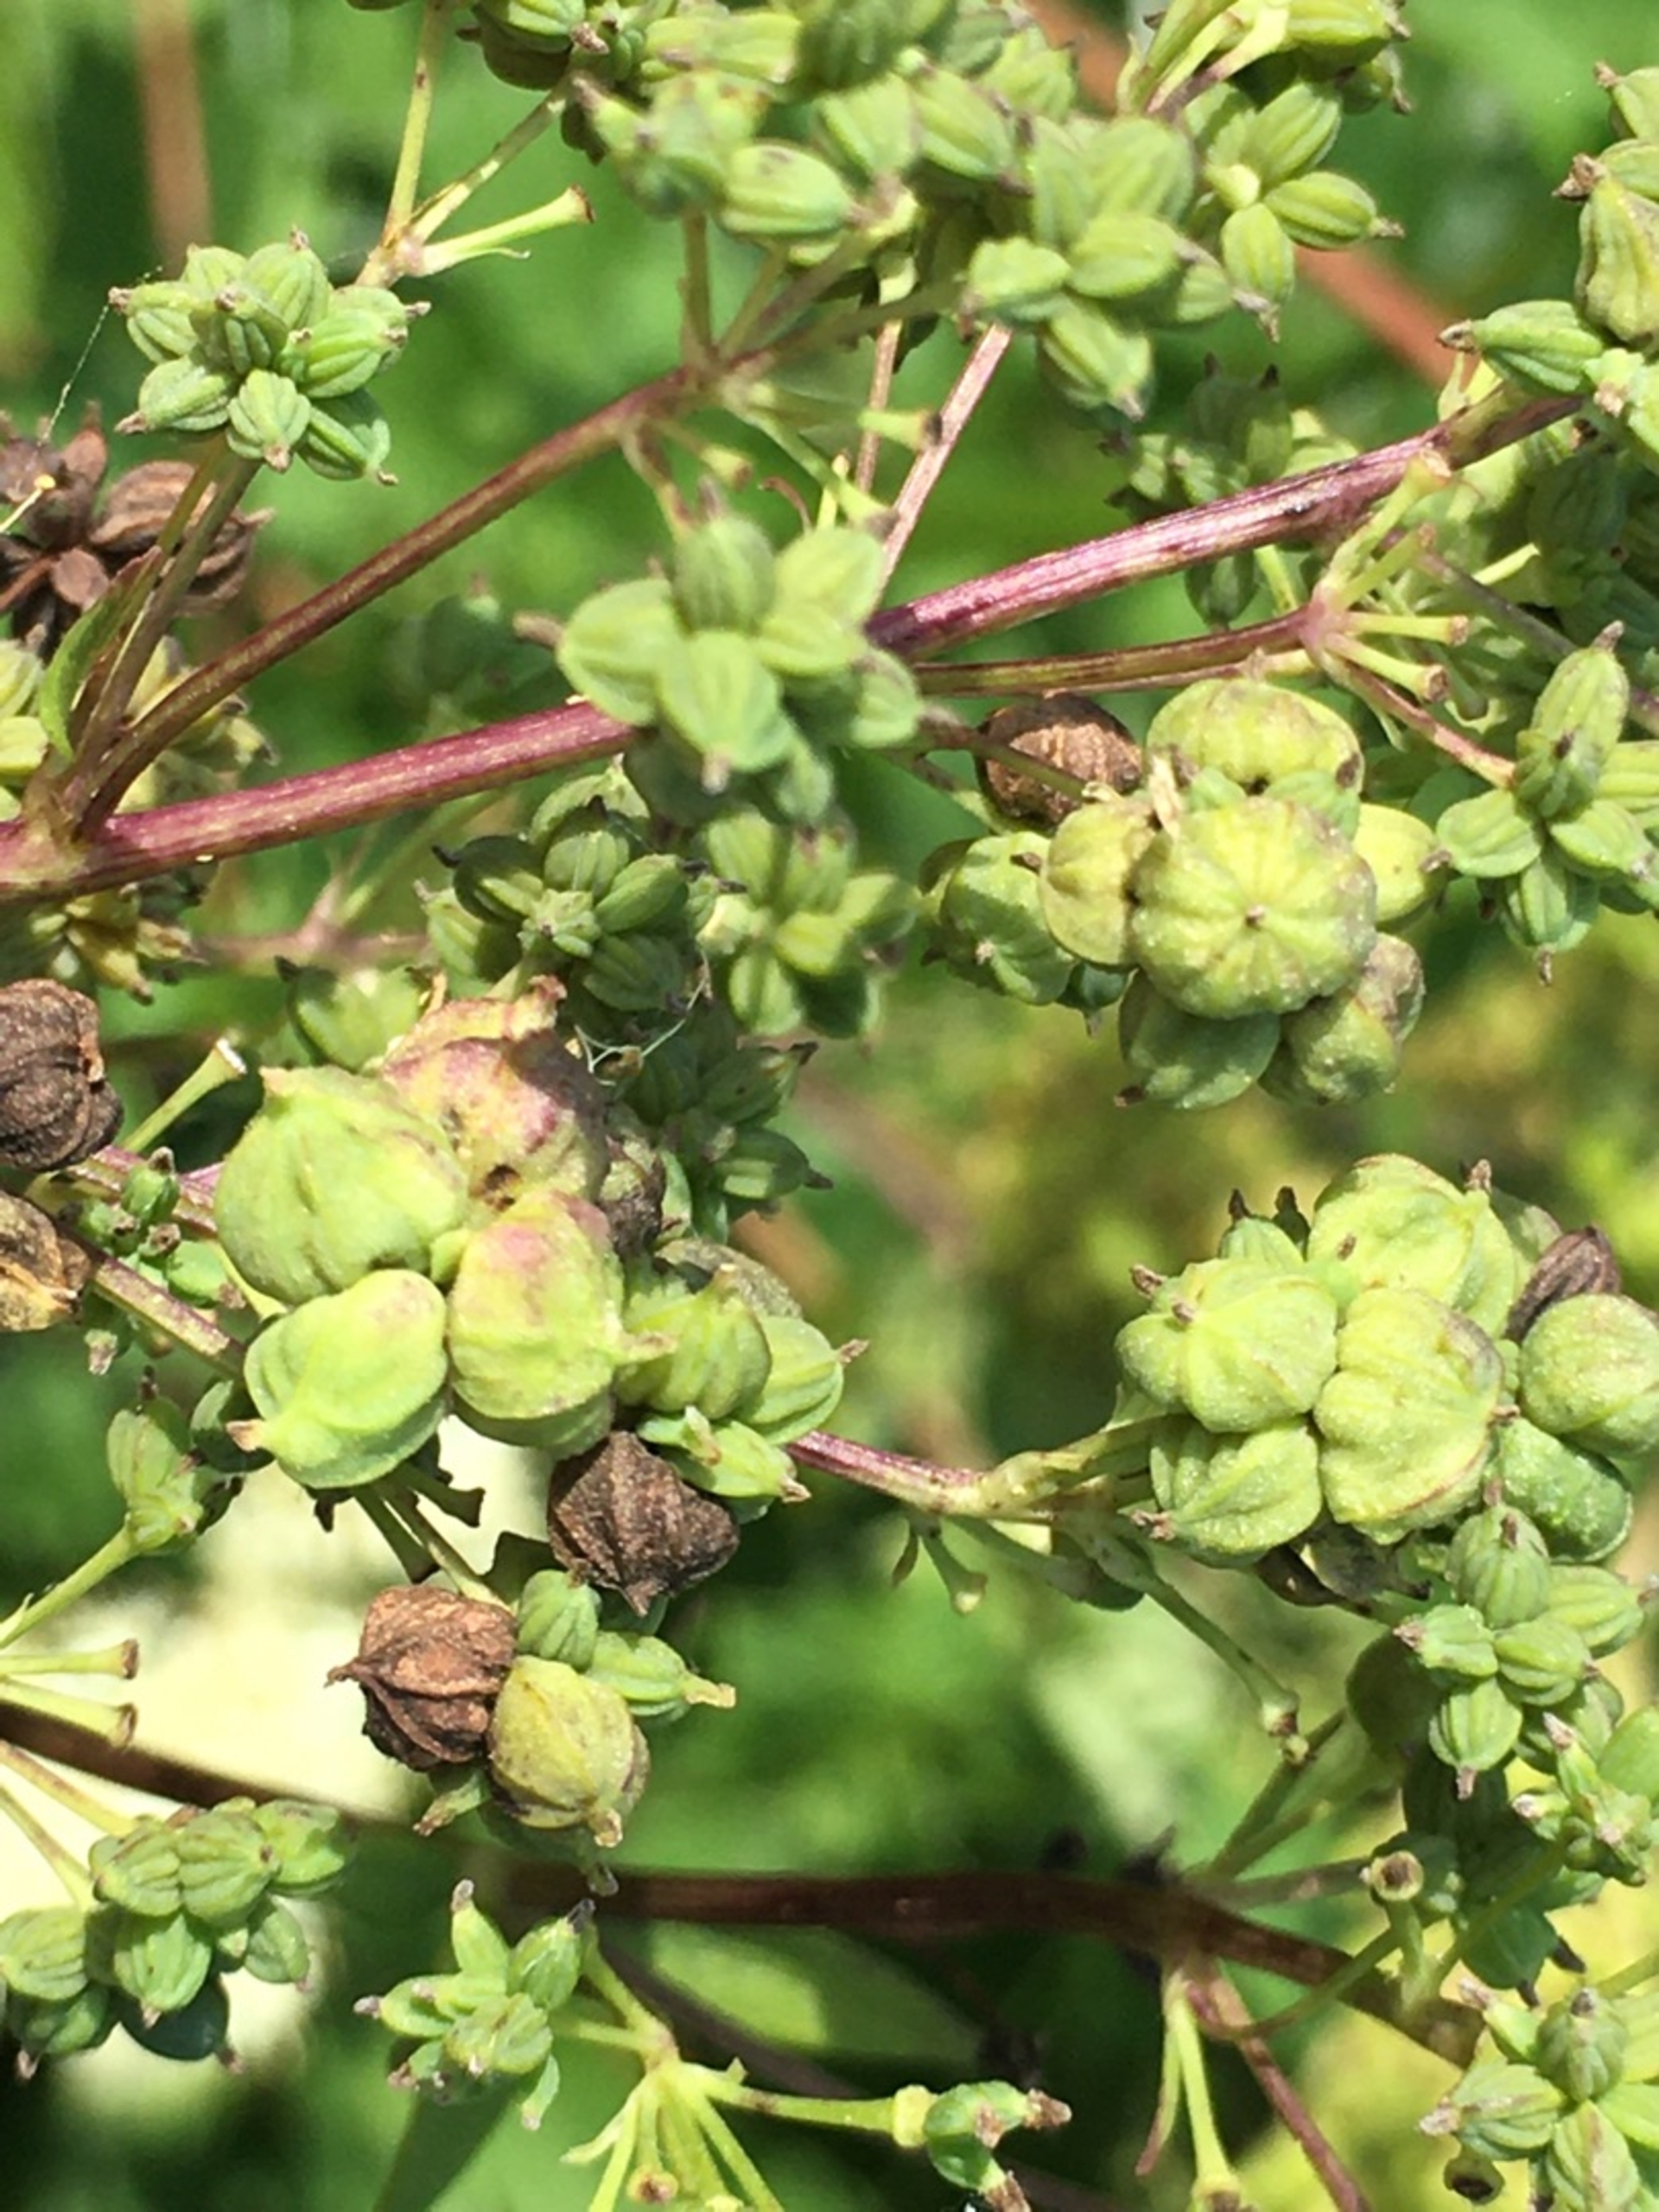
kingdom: Animalia
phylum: Arthropoda
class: Insecta
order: Diptera
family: Cecidomyiidae
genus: Ametrodiplosis
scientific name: Ametrodiplosis thalictricola
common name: Frøstjernegalmyg
